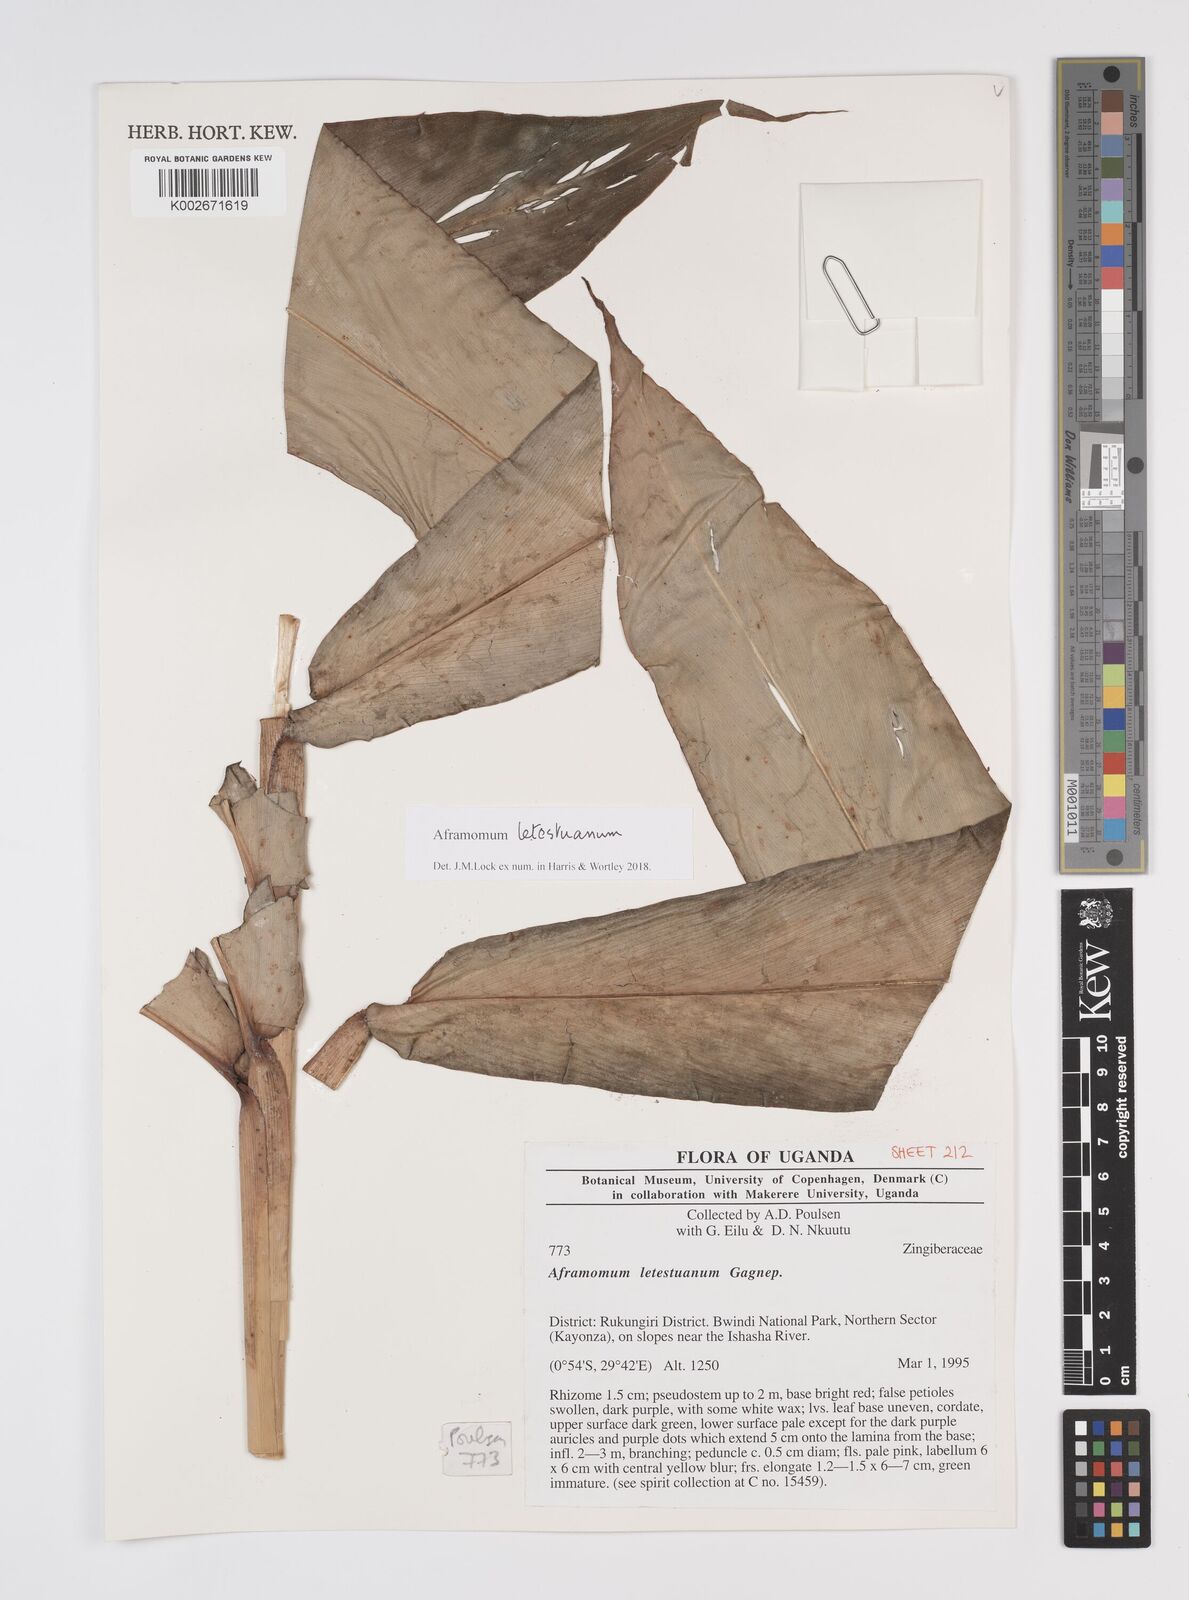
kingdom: Plantae
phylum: Tracheophyta
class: Liliopsida
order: Zingiberales
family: Zingiberaceae
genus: Aframomum
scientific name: Aframomum letestuanum
